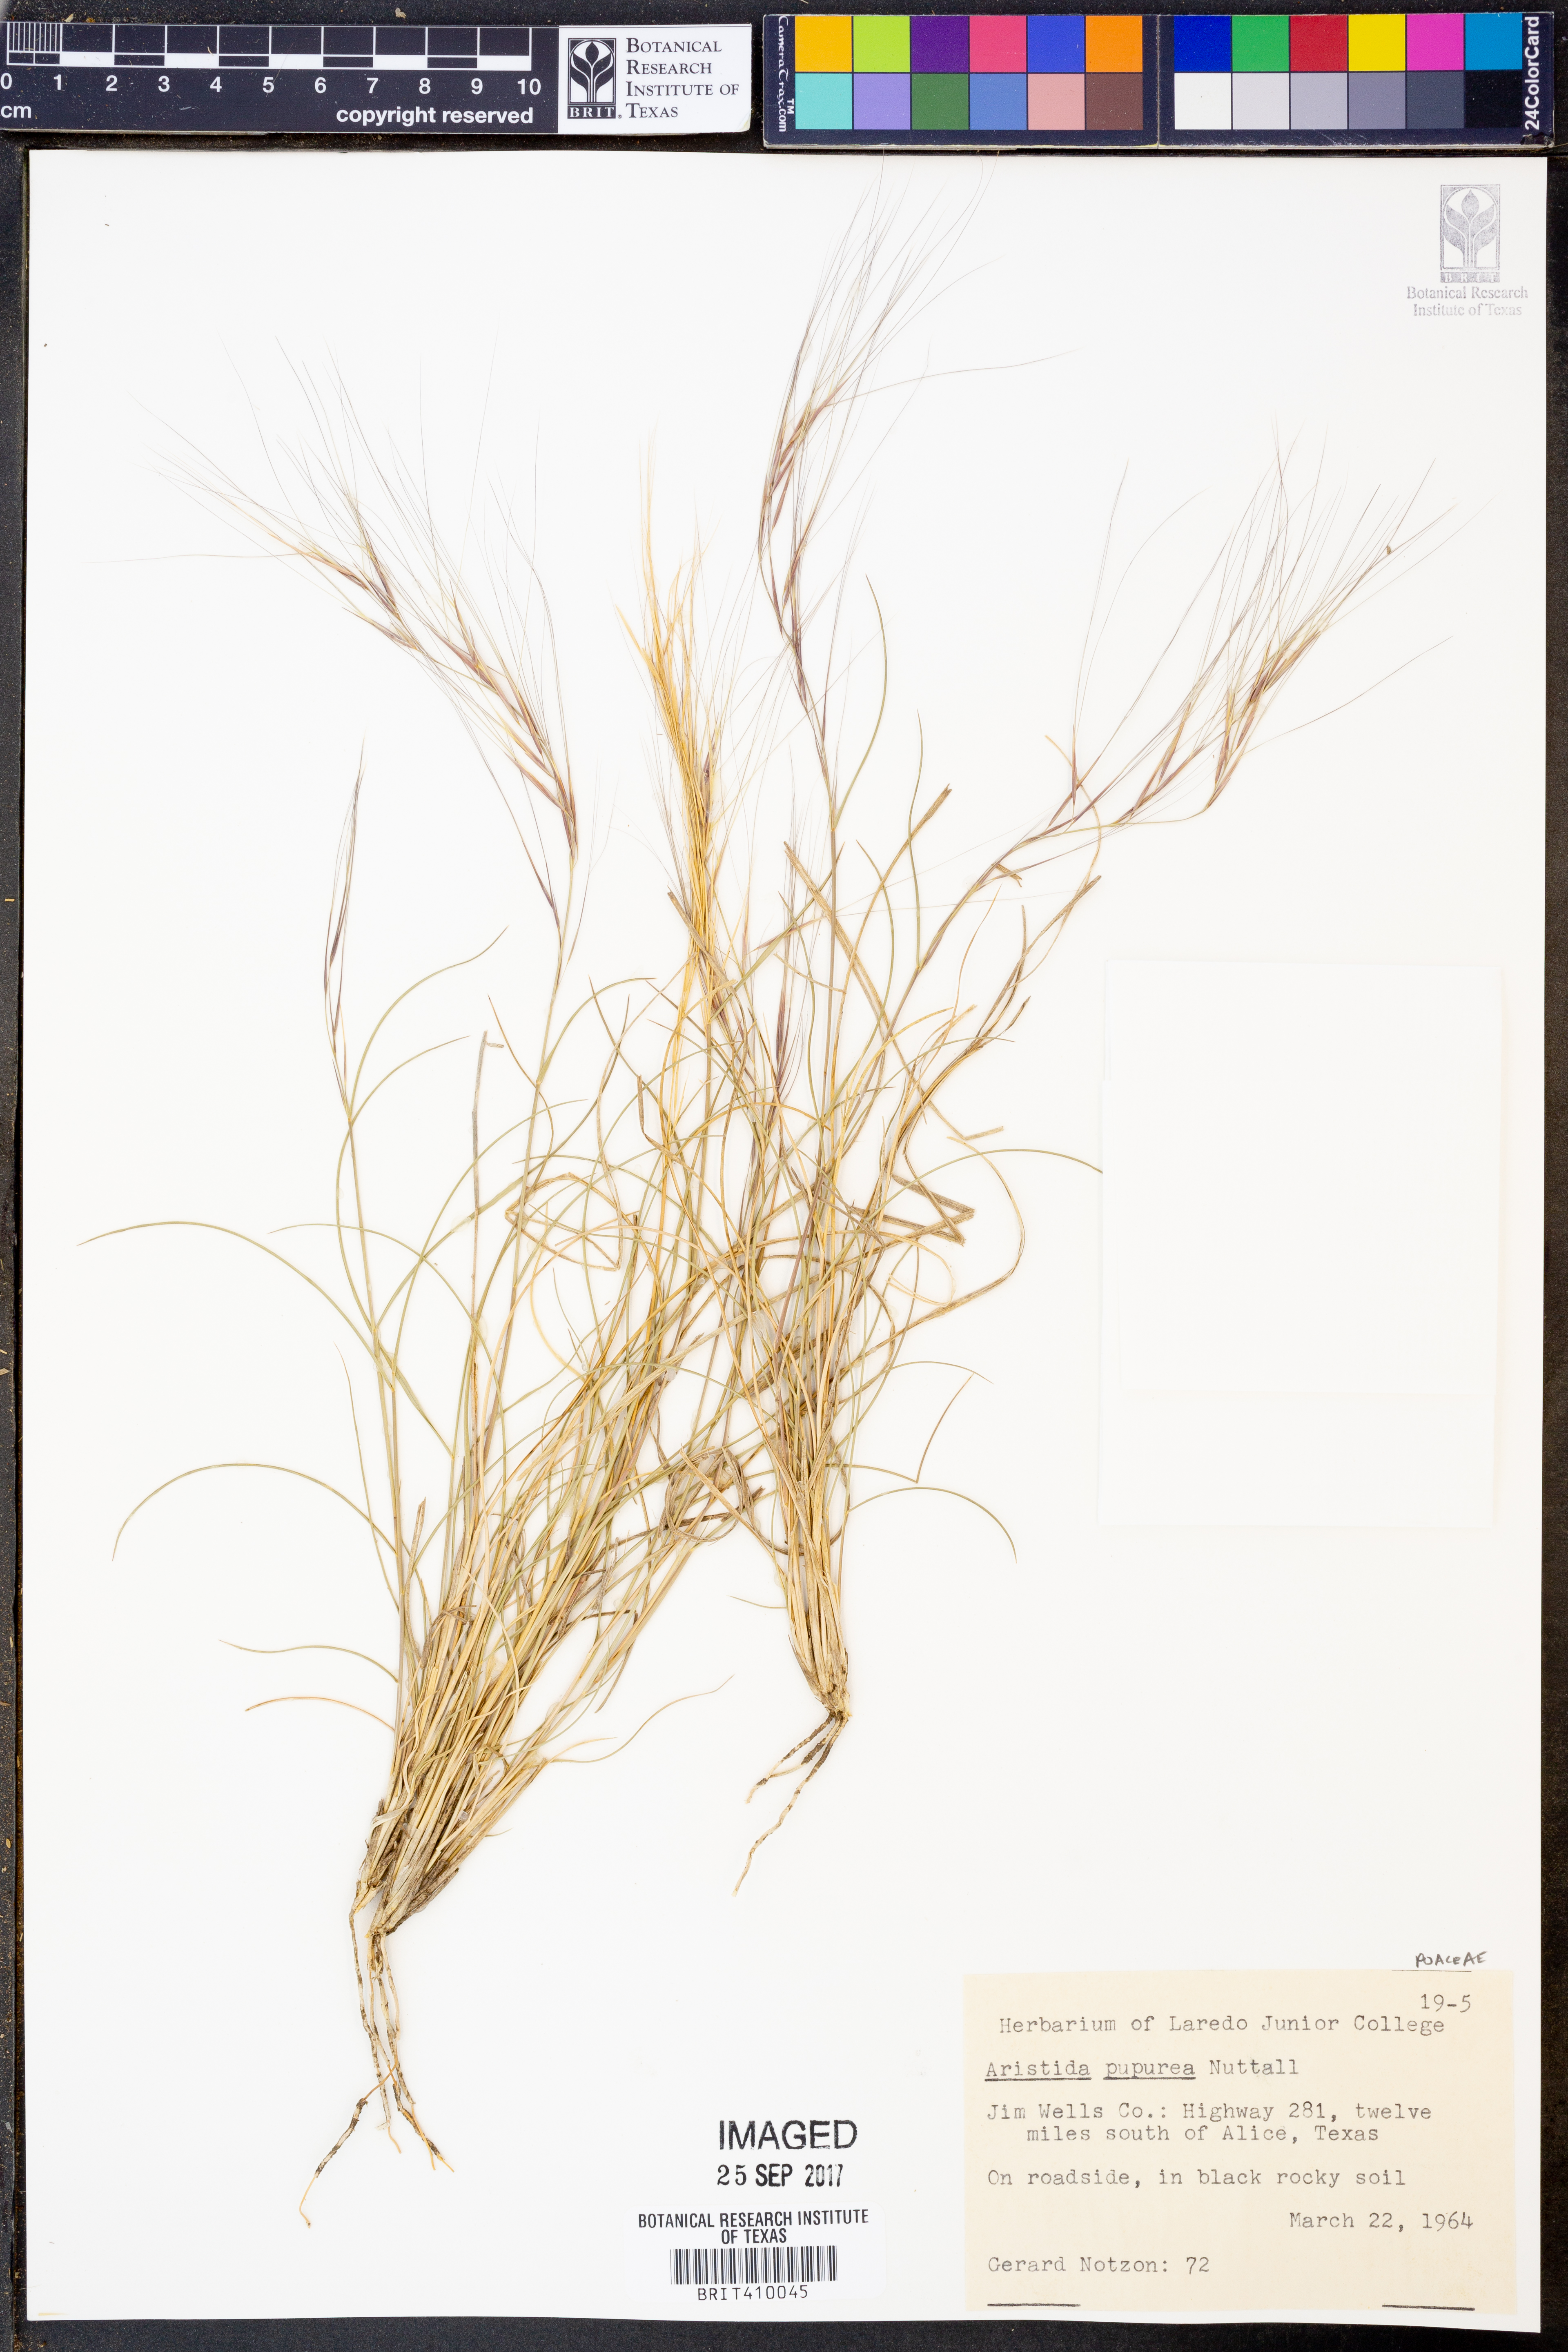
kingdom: Plantae
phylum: Tracheophyta
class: Liliopsida
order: Poales
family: Poaceae
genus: Aristida
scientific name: Aristida purpurea
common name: Purple threeawn
